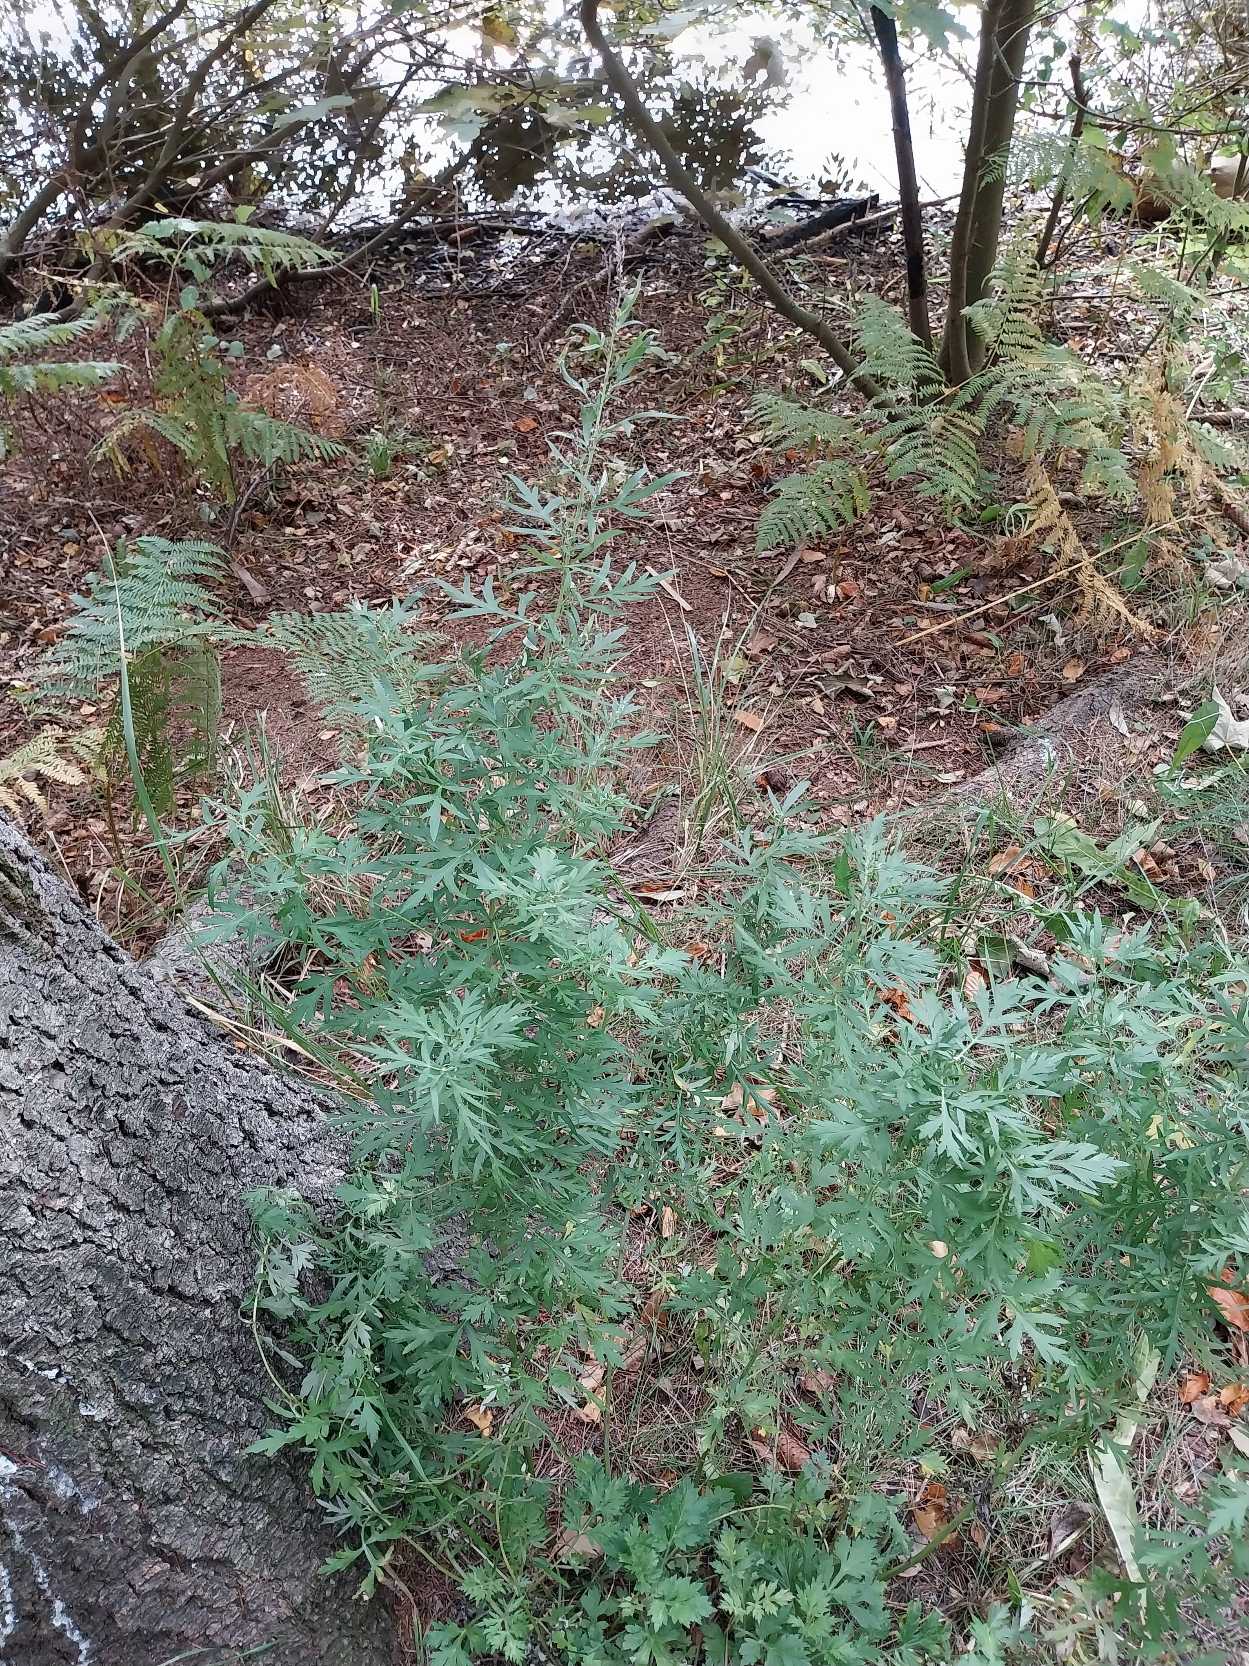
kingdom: Plantae
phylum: Tracheophyta
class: Magnoliopsida
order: Asterales
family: Asteraceae
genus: Artemisia
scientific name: Artemisia vulgaris
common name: Grå-bynke
